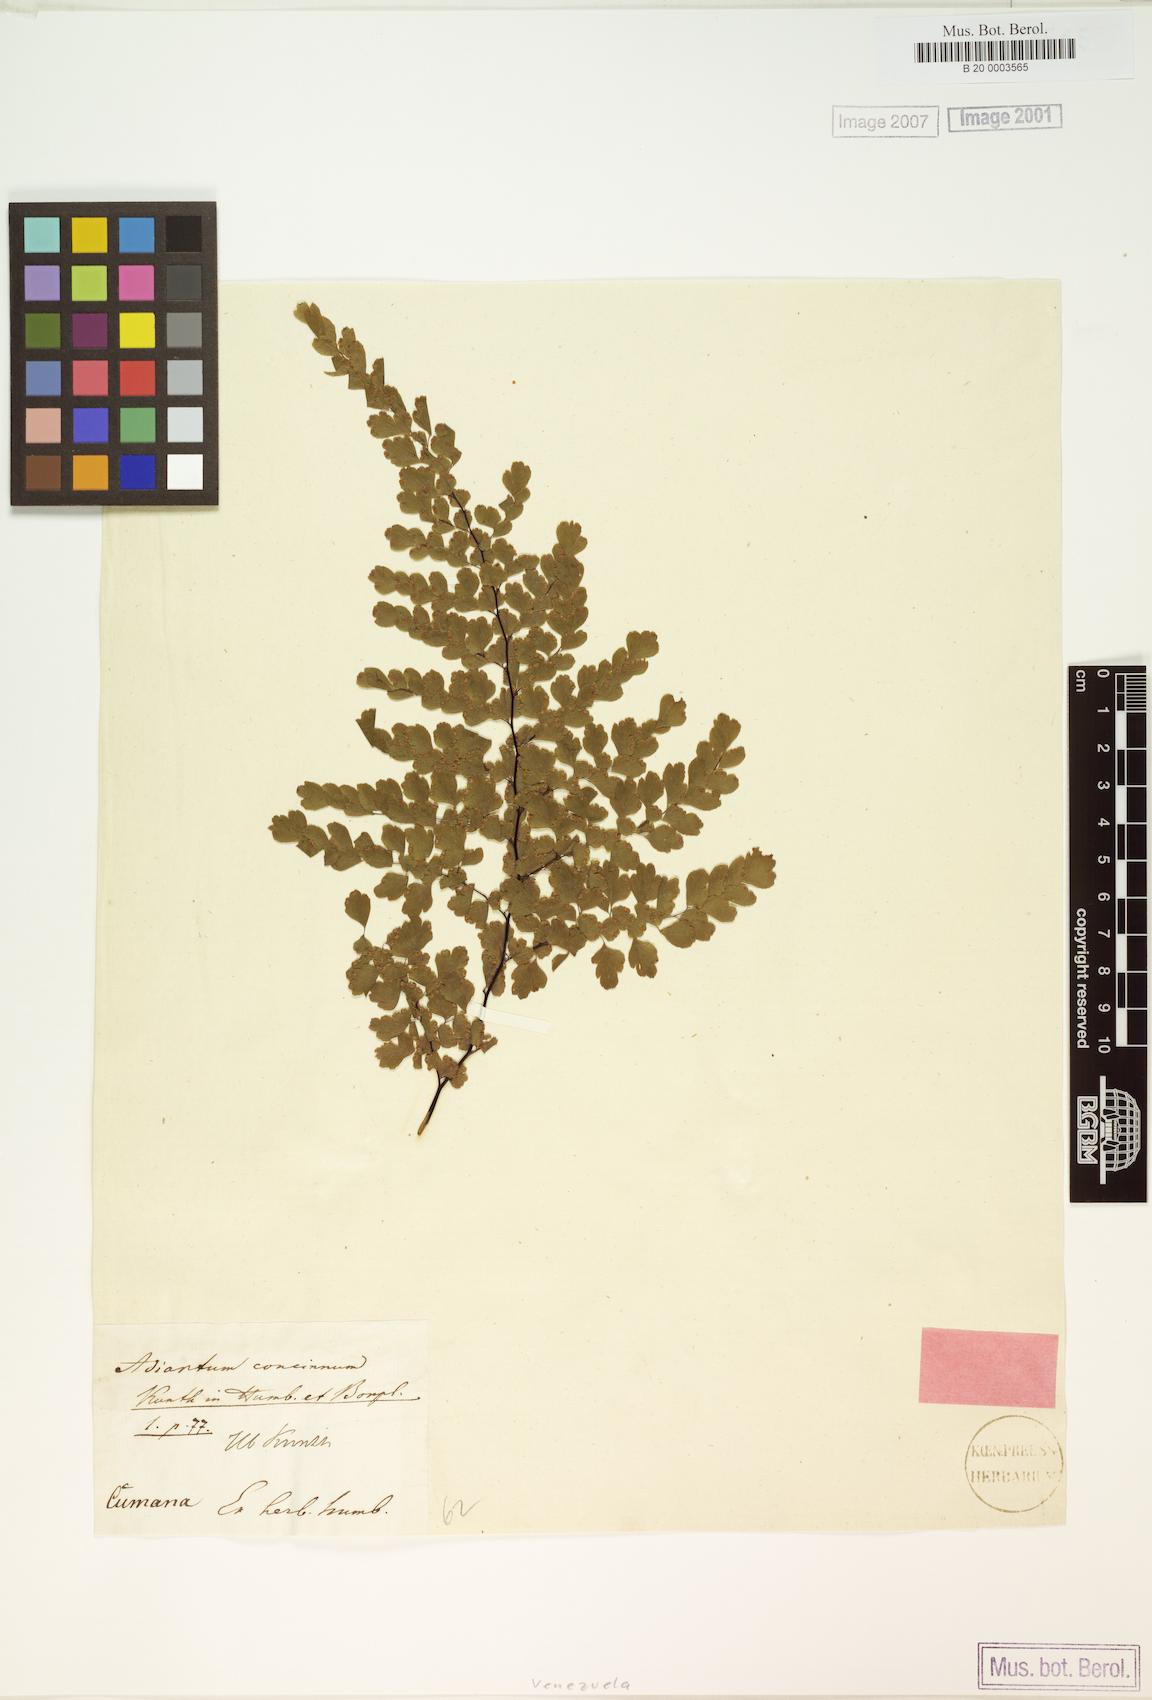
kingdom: Plantae
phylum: Tracheophyta
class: Polypodiopsida
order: Polypodiales
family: Pteridaceae
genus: Adiantum
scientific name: Adiantum concinnum
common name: Brittle maidenhair fern
